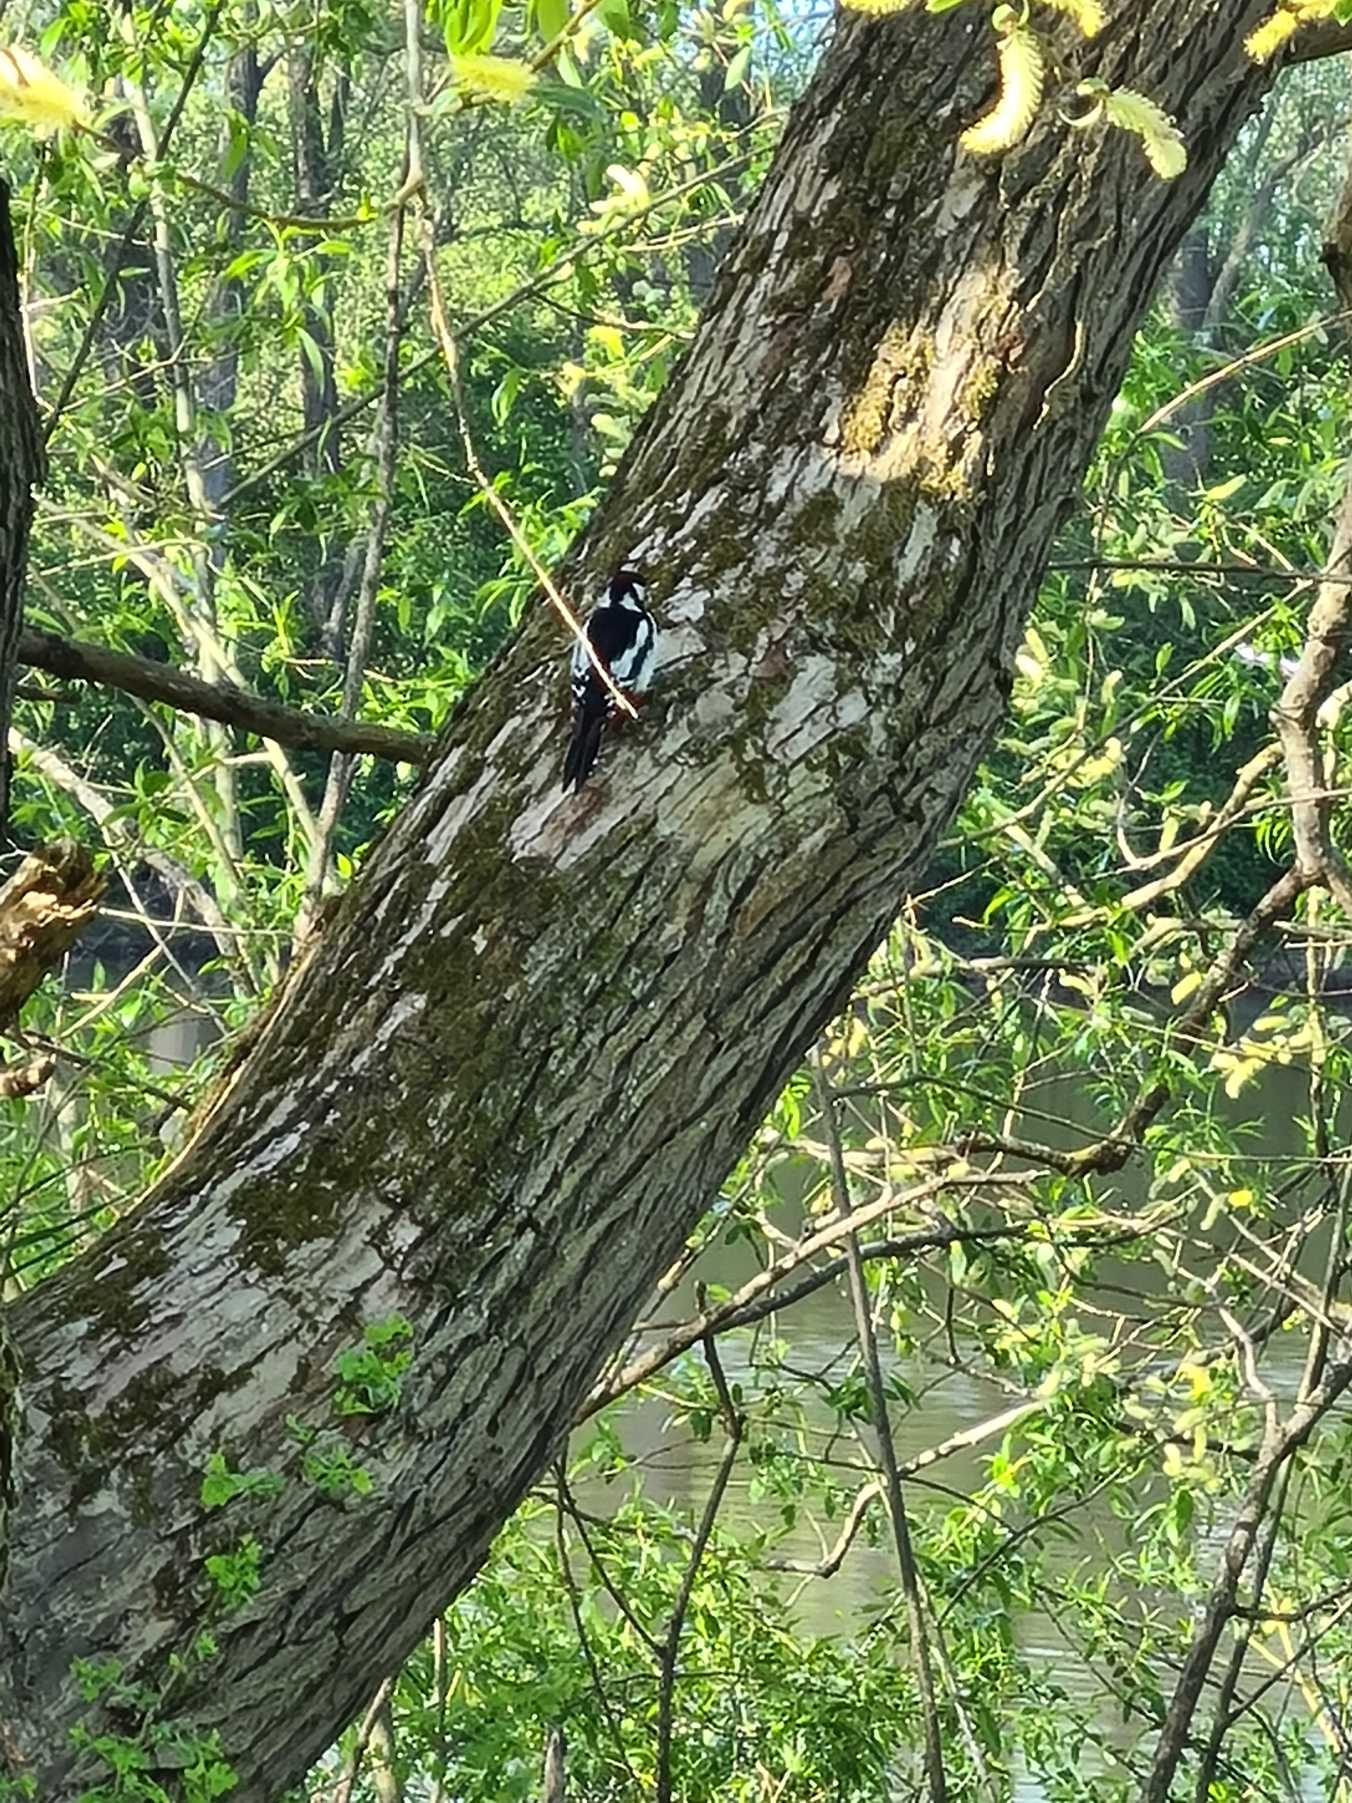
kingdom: Animalia
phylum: Chordata
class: Aves
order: Piciformes
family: Picidae
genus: Dendrocopos
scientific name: Dendrocopos major
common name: Stor flagspætte
